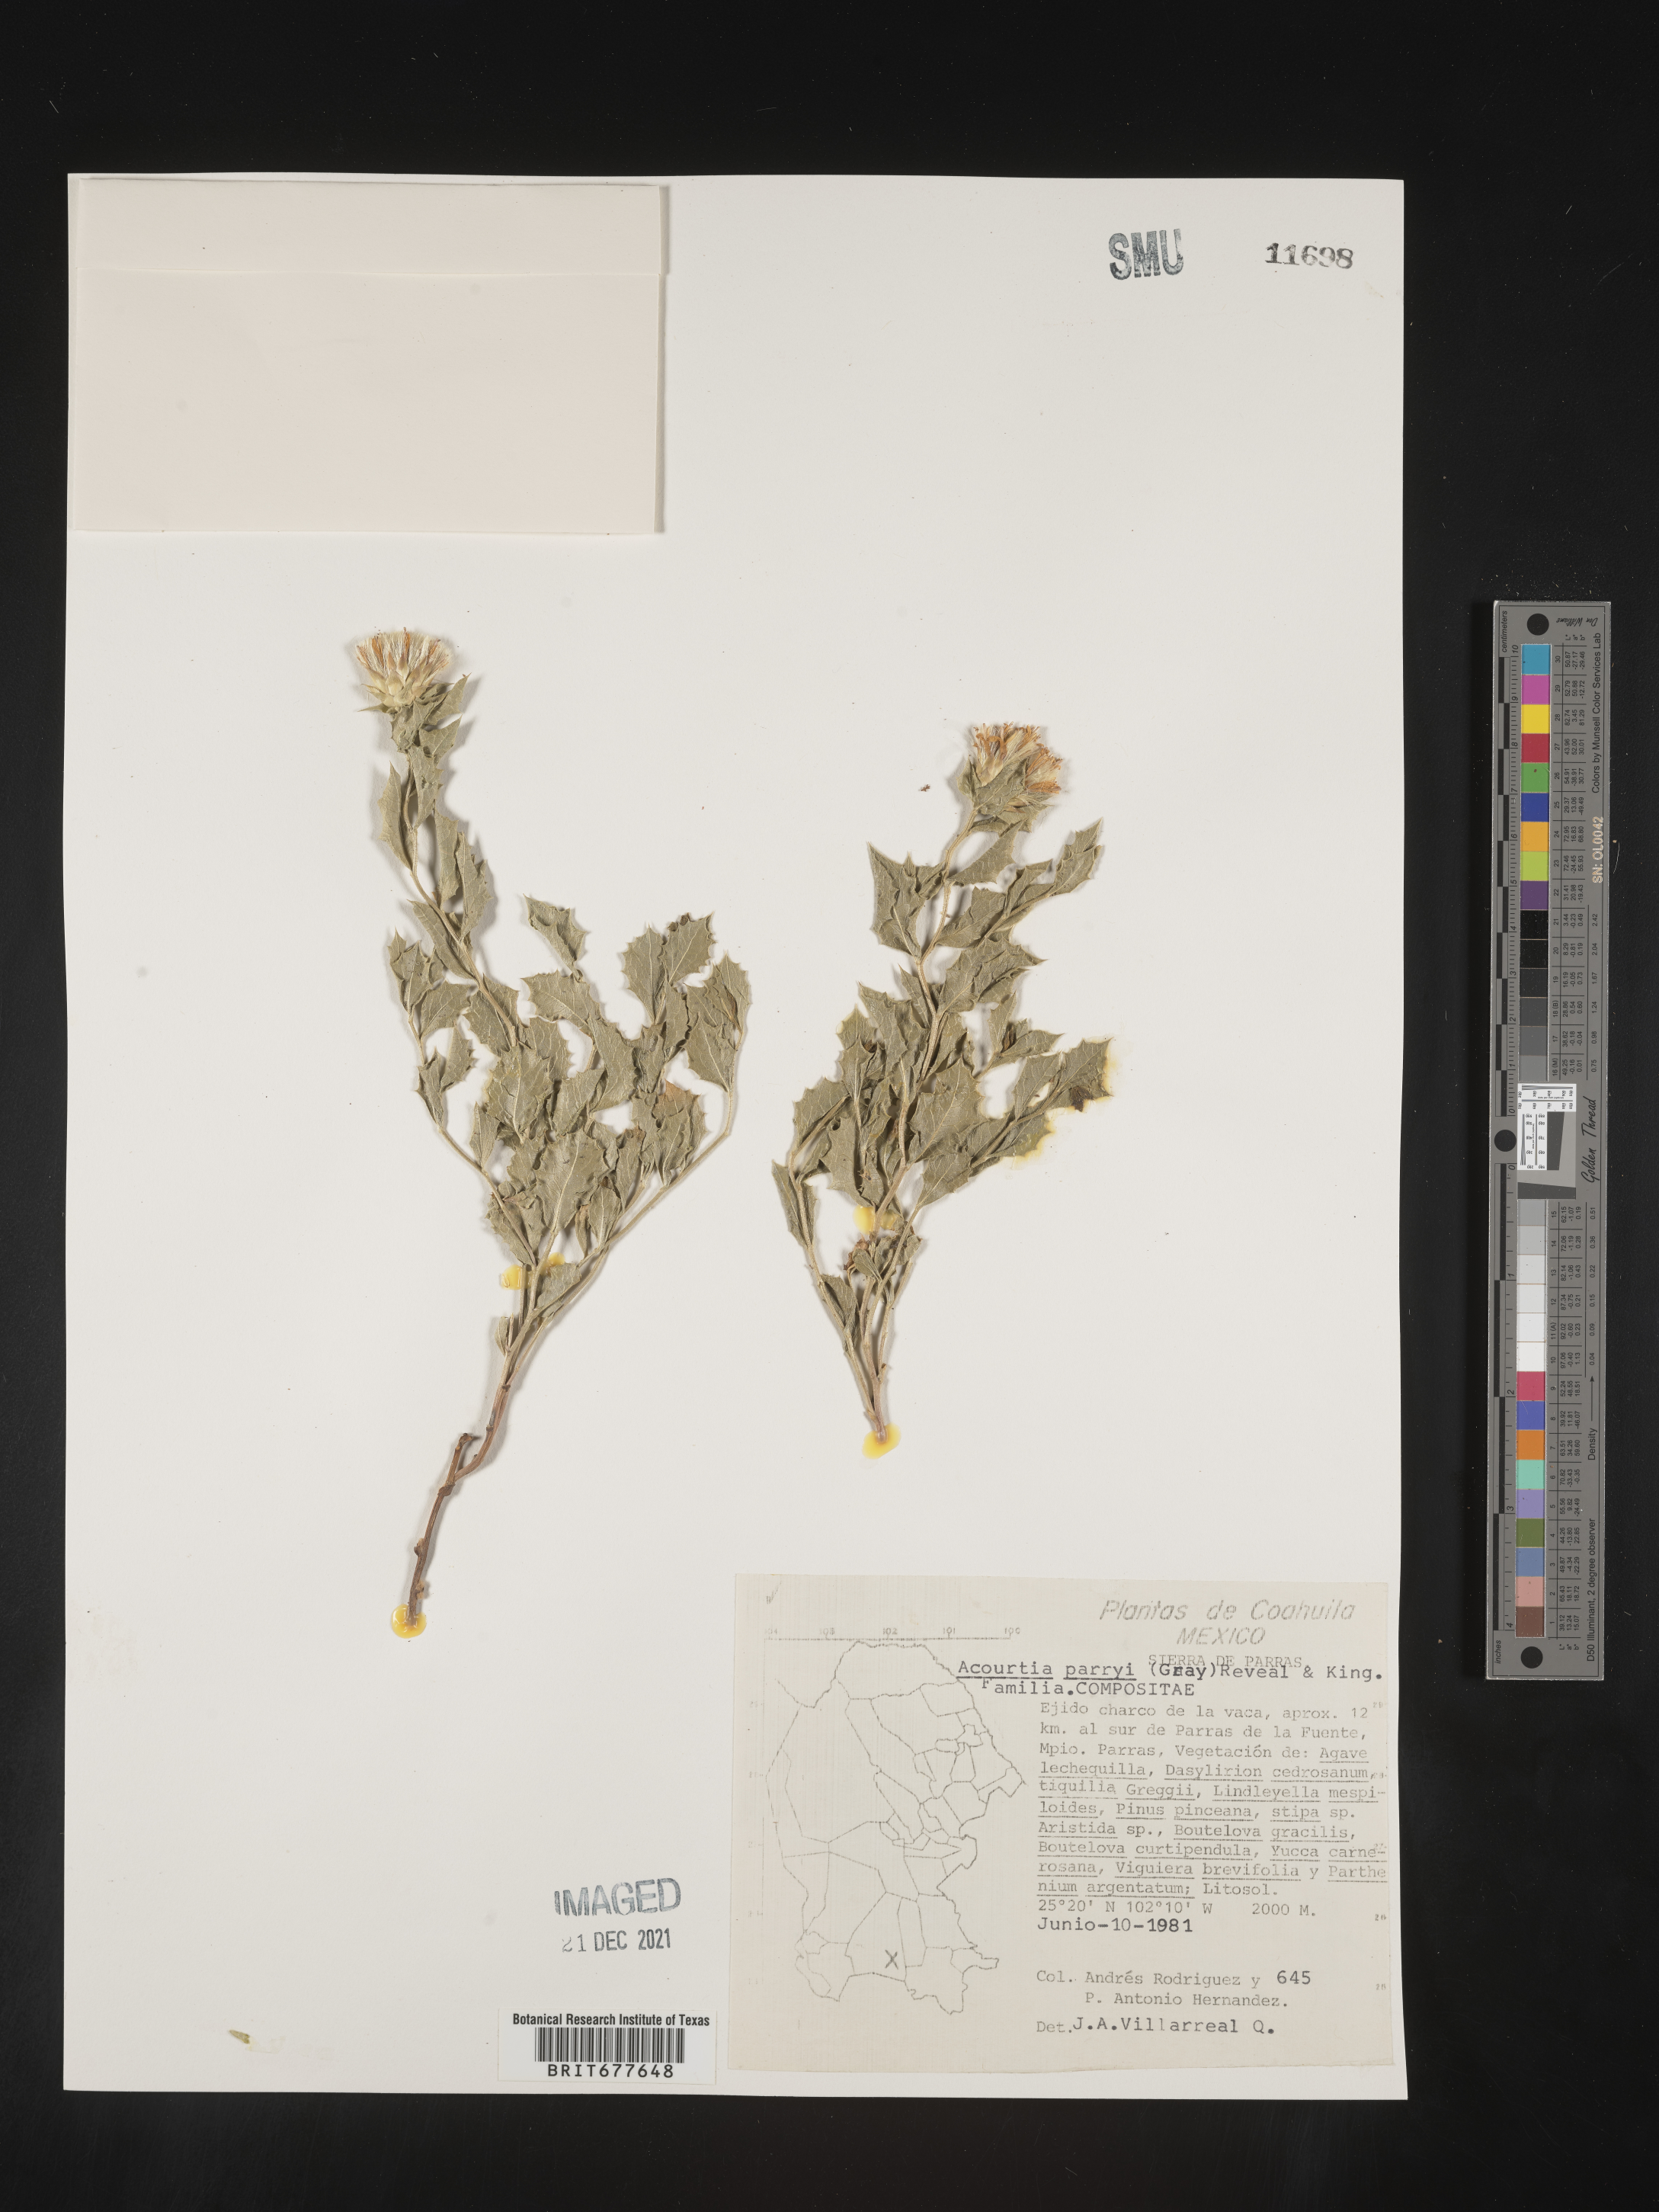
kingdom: Plantae
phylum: Tracheophyta
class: Magnoliopsida
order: Asterales
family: Asteraceae
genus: Acourtia
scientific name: Acourtia
